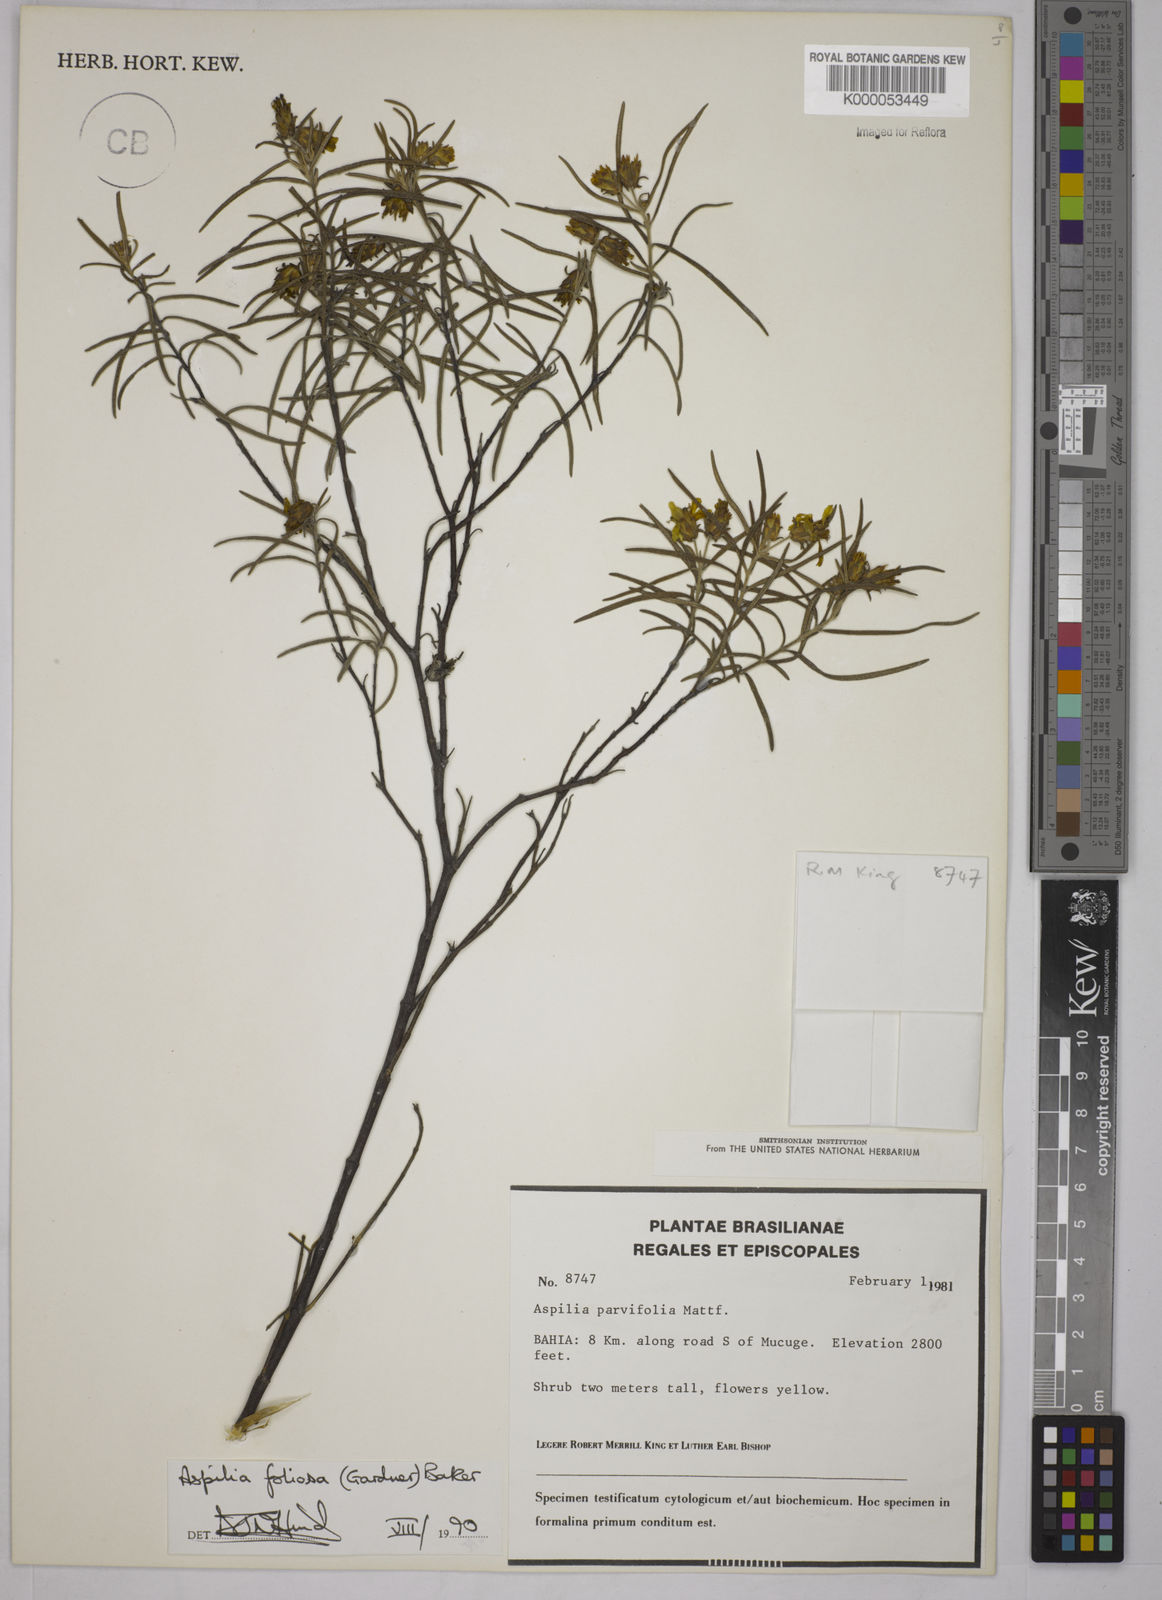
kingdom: Plantae
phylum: Tracheophyta
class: Magnoliopsida
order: Asterales
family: Asteraceae
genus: Aspilia
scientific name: Aspilia
